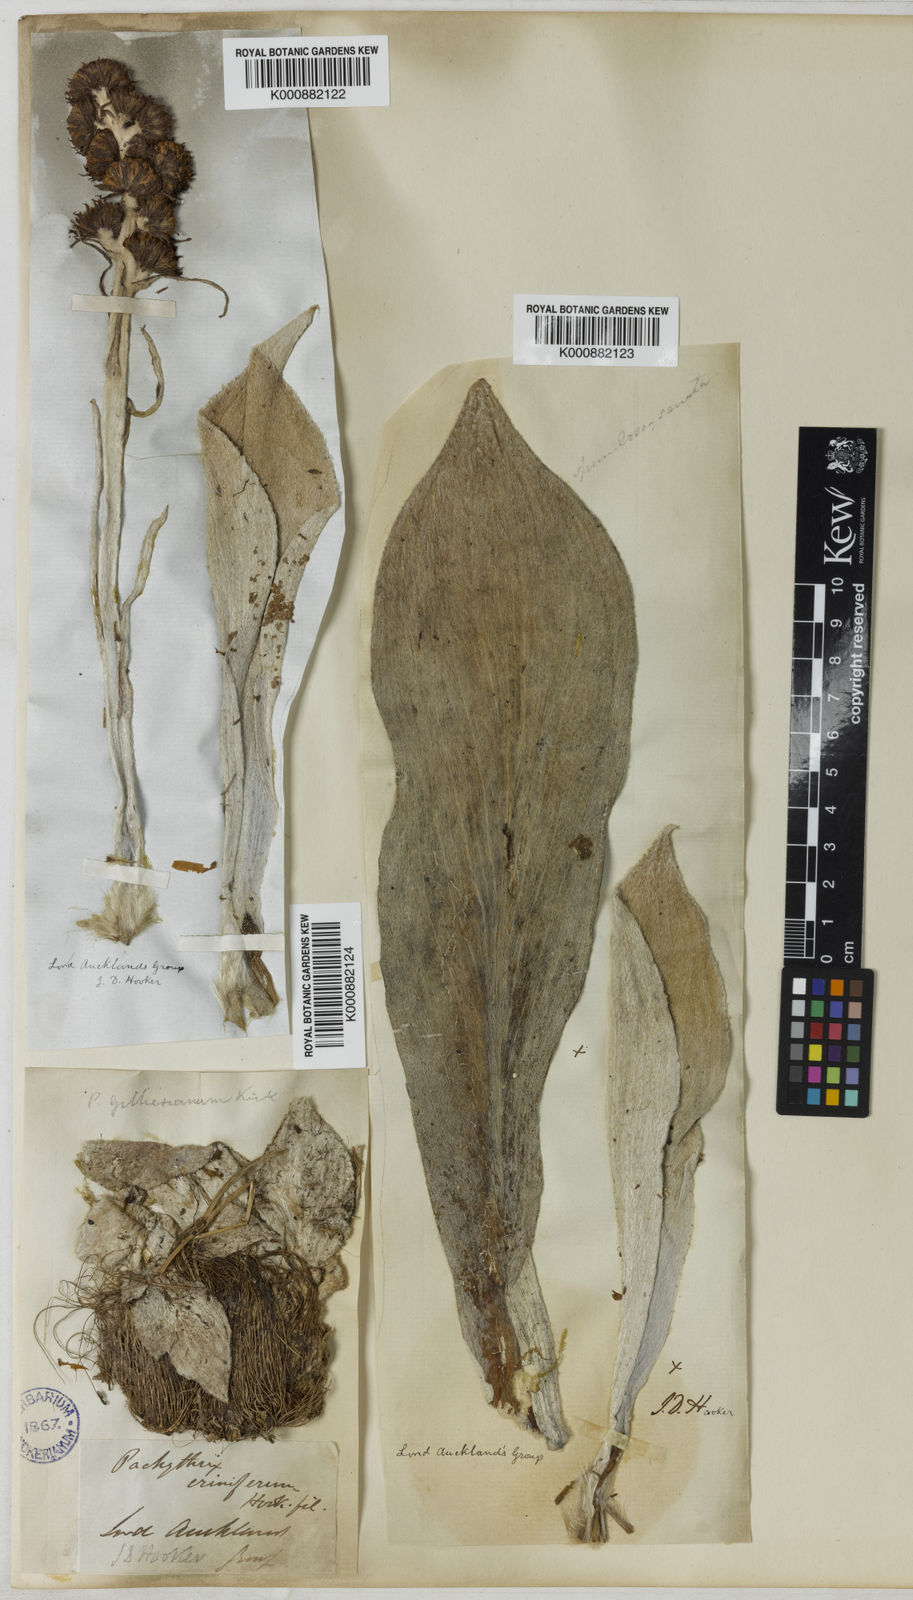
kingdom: Plantae
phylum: Tracheophyta
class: Magnoliopsida
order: Asterales
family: Asteraceae
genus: Pleurophyllum
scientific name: Pleurophyllum speciosum
